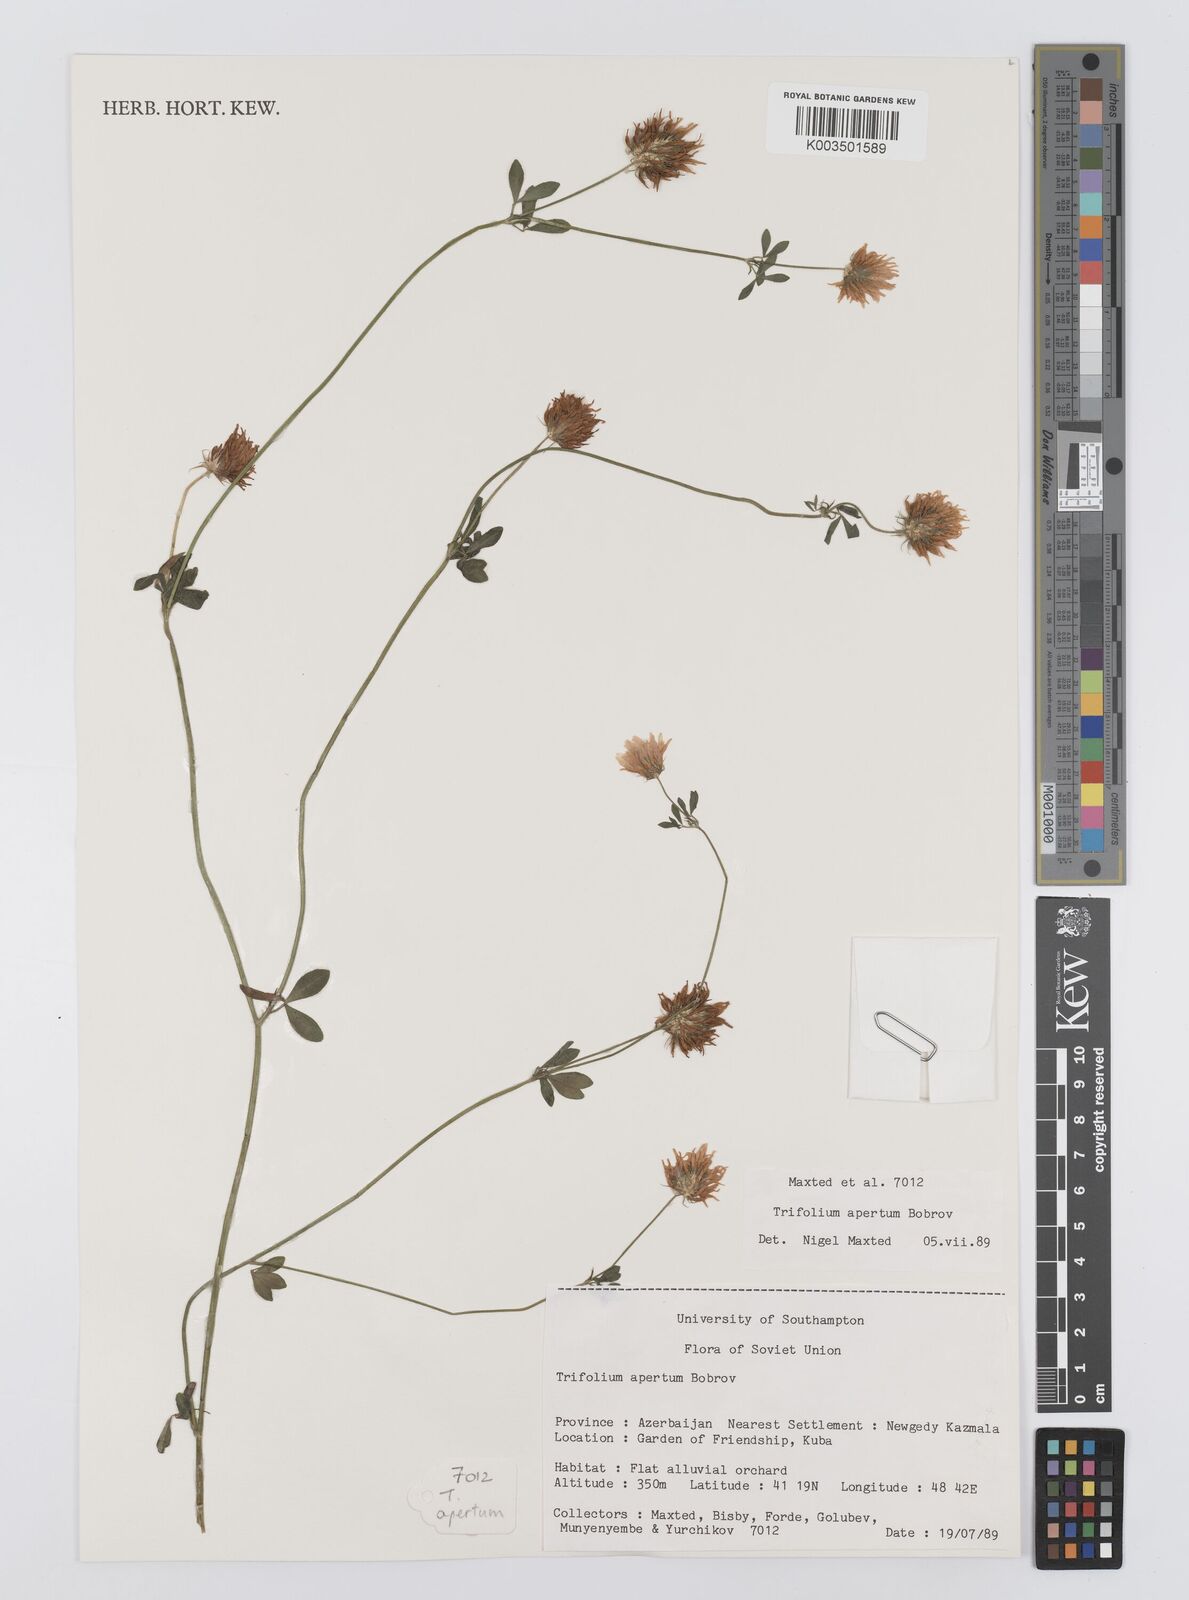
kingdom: Plantae
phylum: Tracheophyta
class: Magnoliopsida
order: Fabales
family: Fabaceae
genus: Trifolium
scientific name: Trifolium apertum
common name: Open clover
